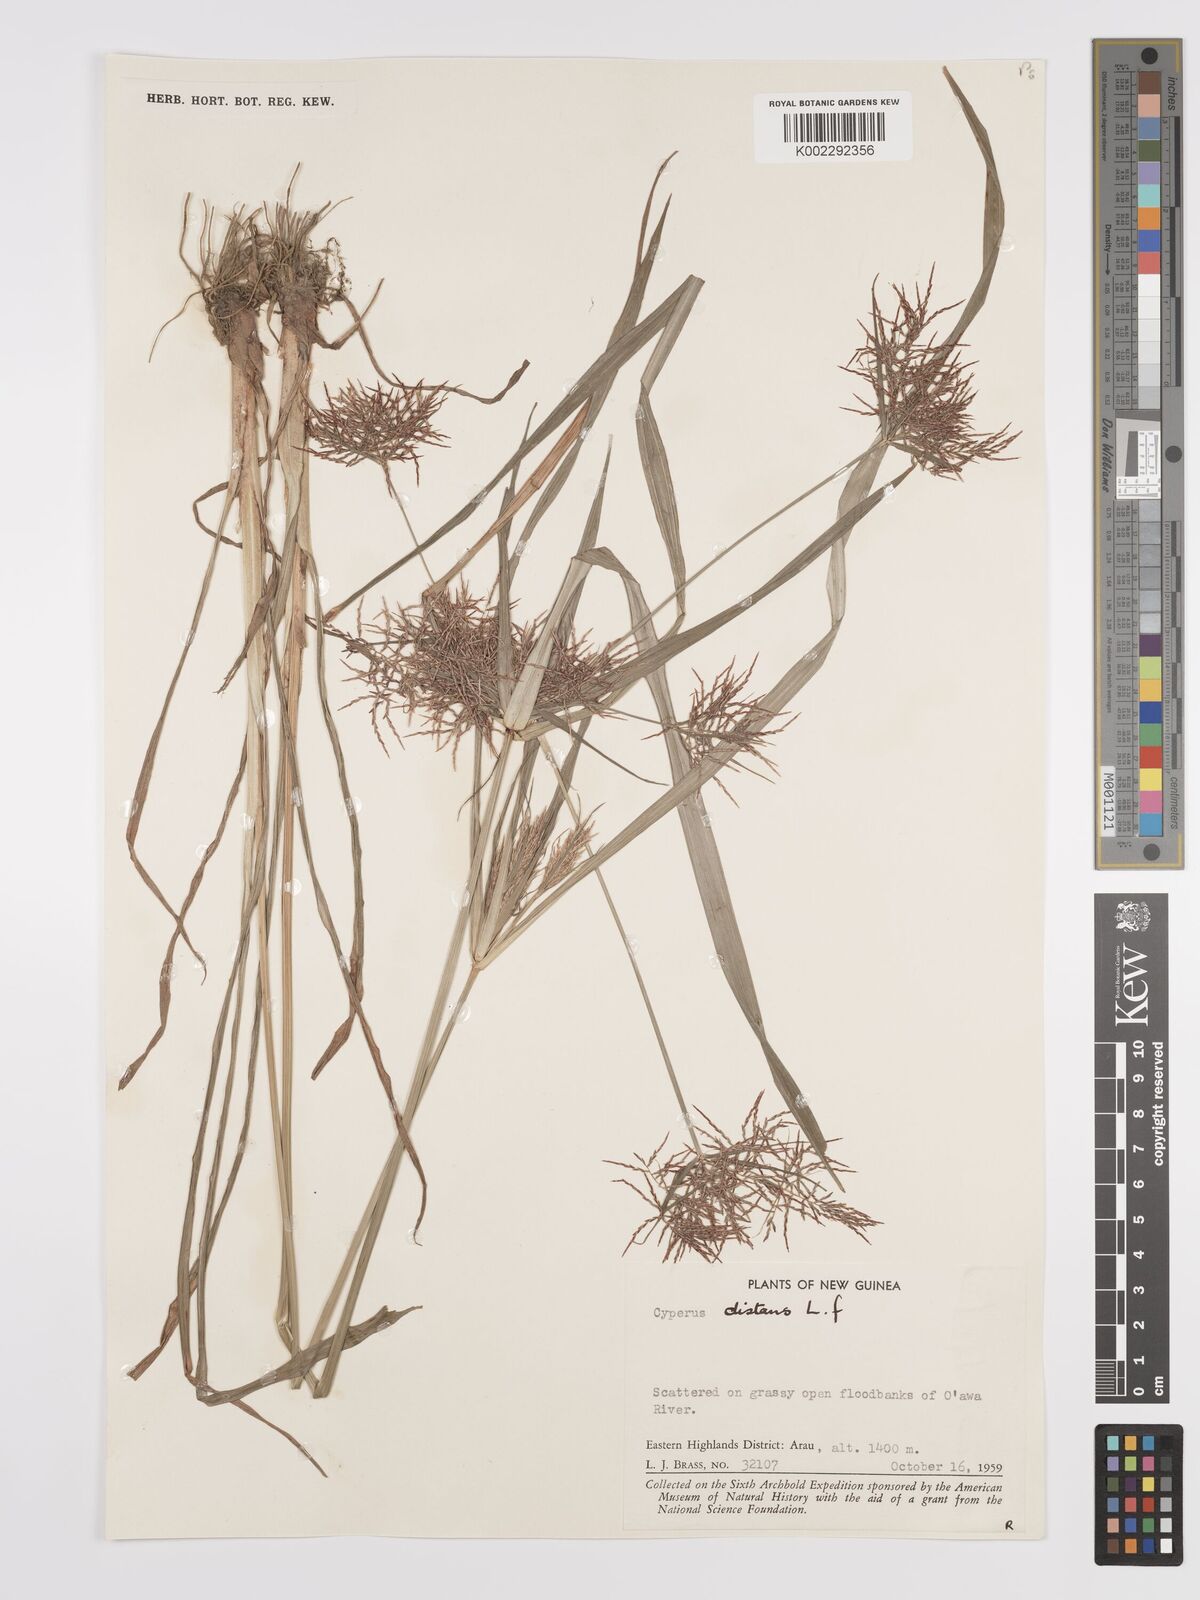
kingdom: Plantae
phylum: Tracheophyta
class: Liliopsida
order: Poales
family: Cyperaceae
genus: Cyperus
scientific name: Cyperus distans
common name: Slender cyperus
